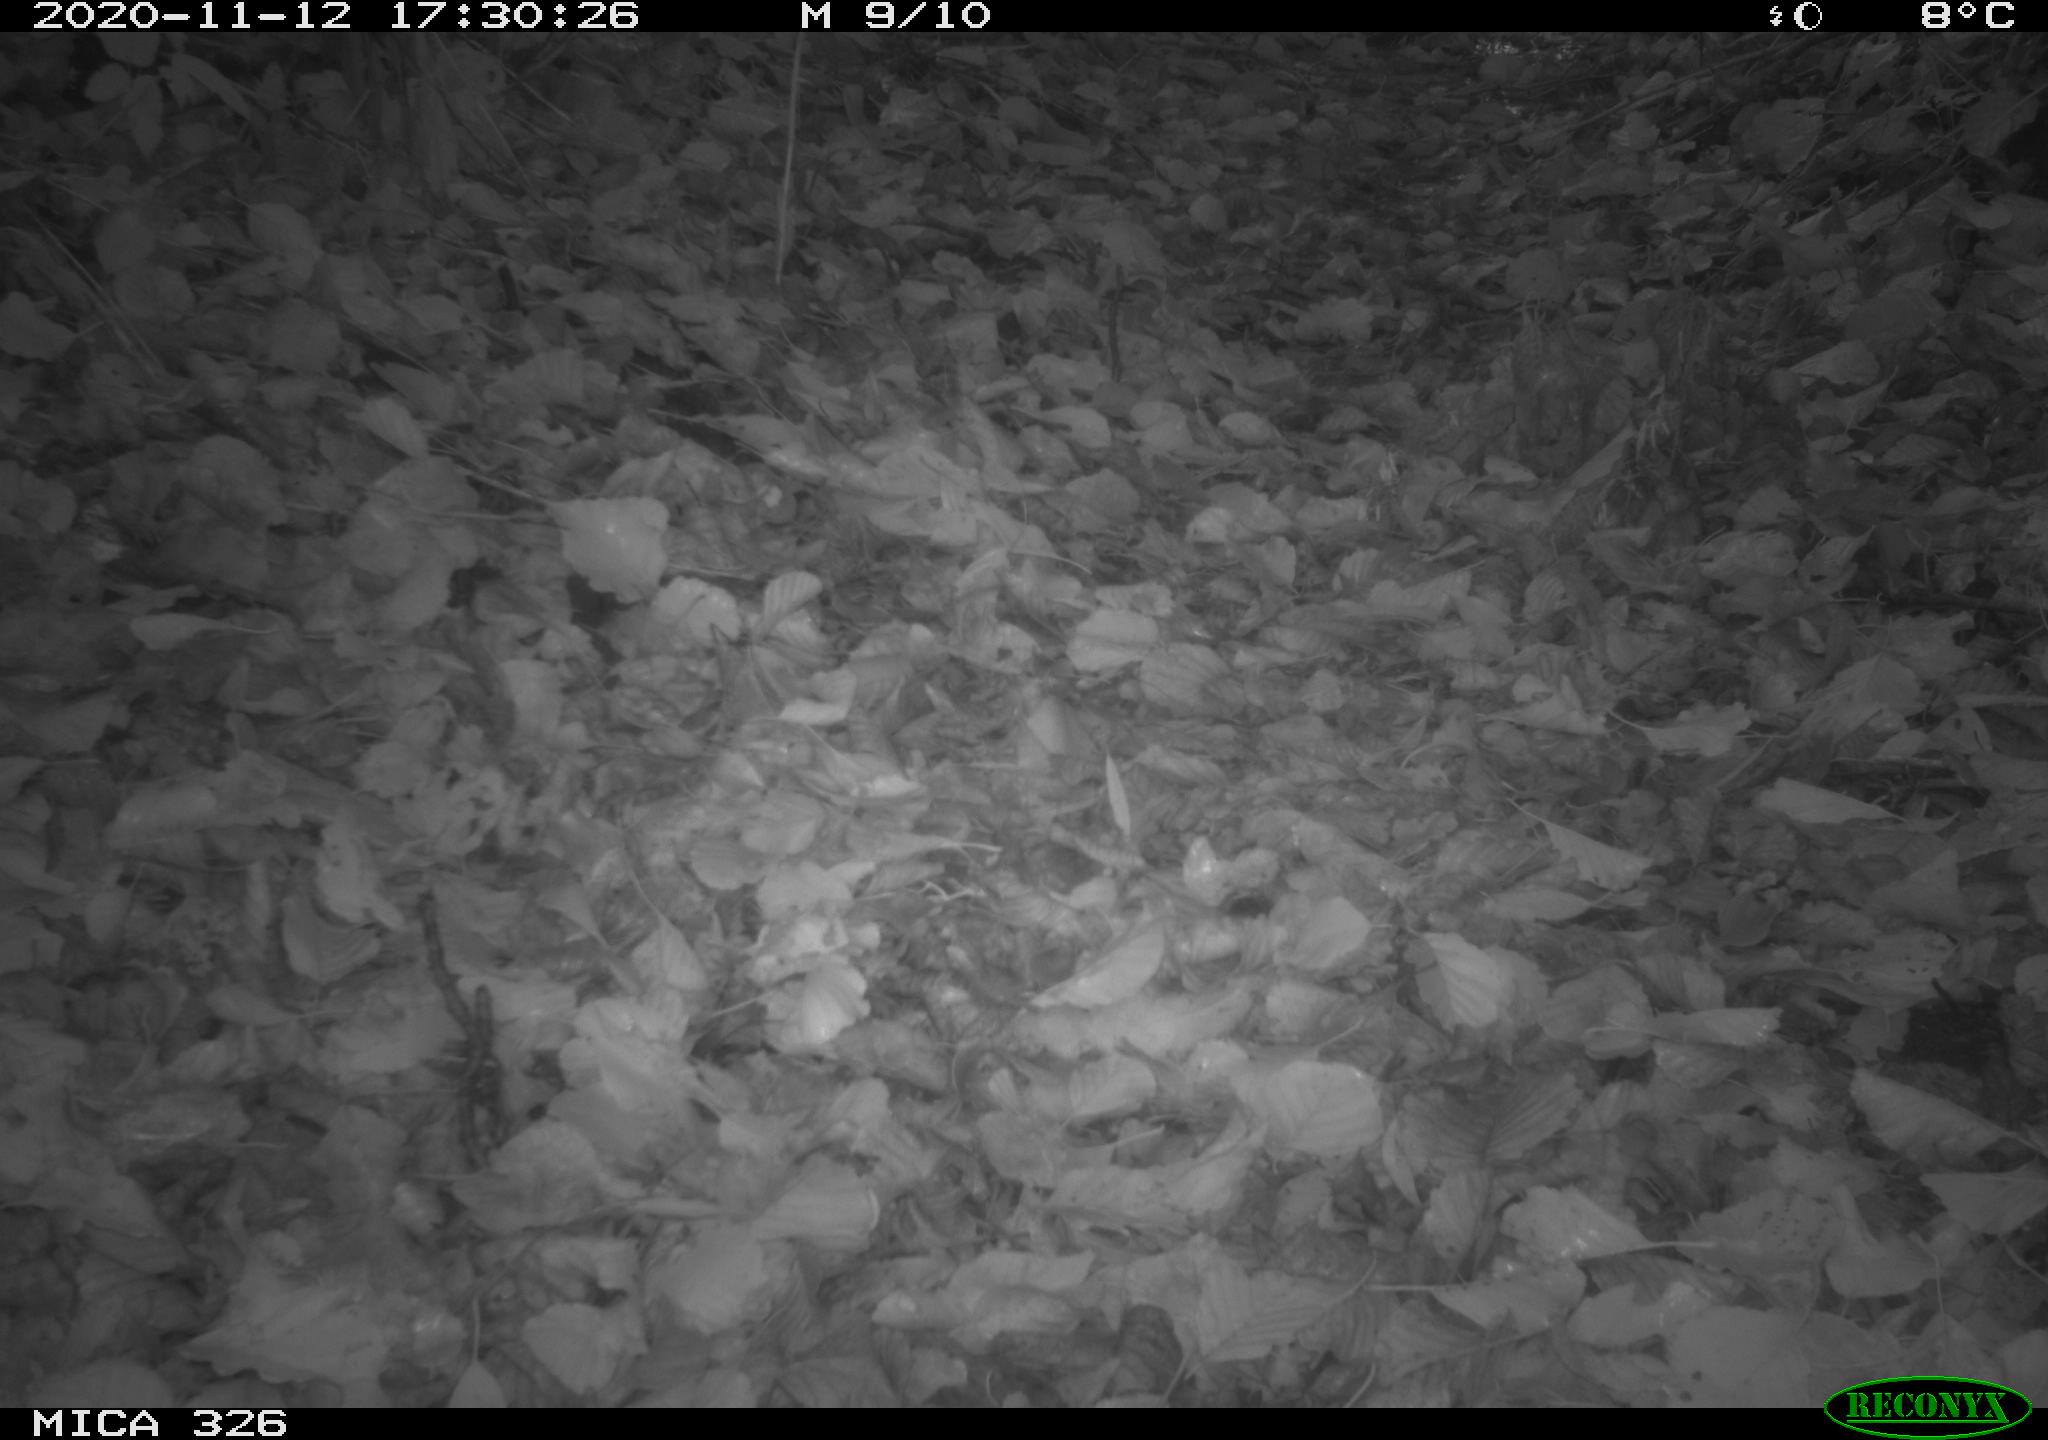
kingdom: Animalia
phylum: Chordata
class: Aves
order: Galliformes
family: Phasianidae
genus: Phasianus
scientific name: Phasianus colchicus
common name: Common pheasant
